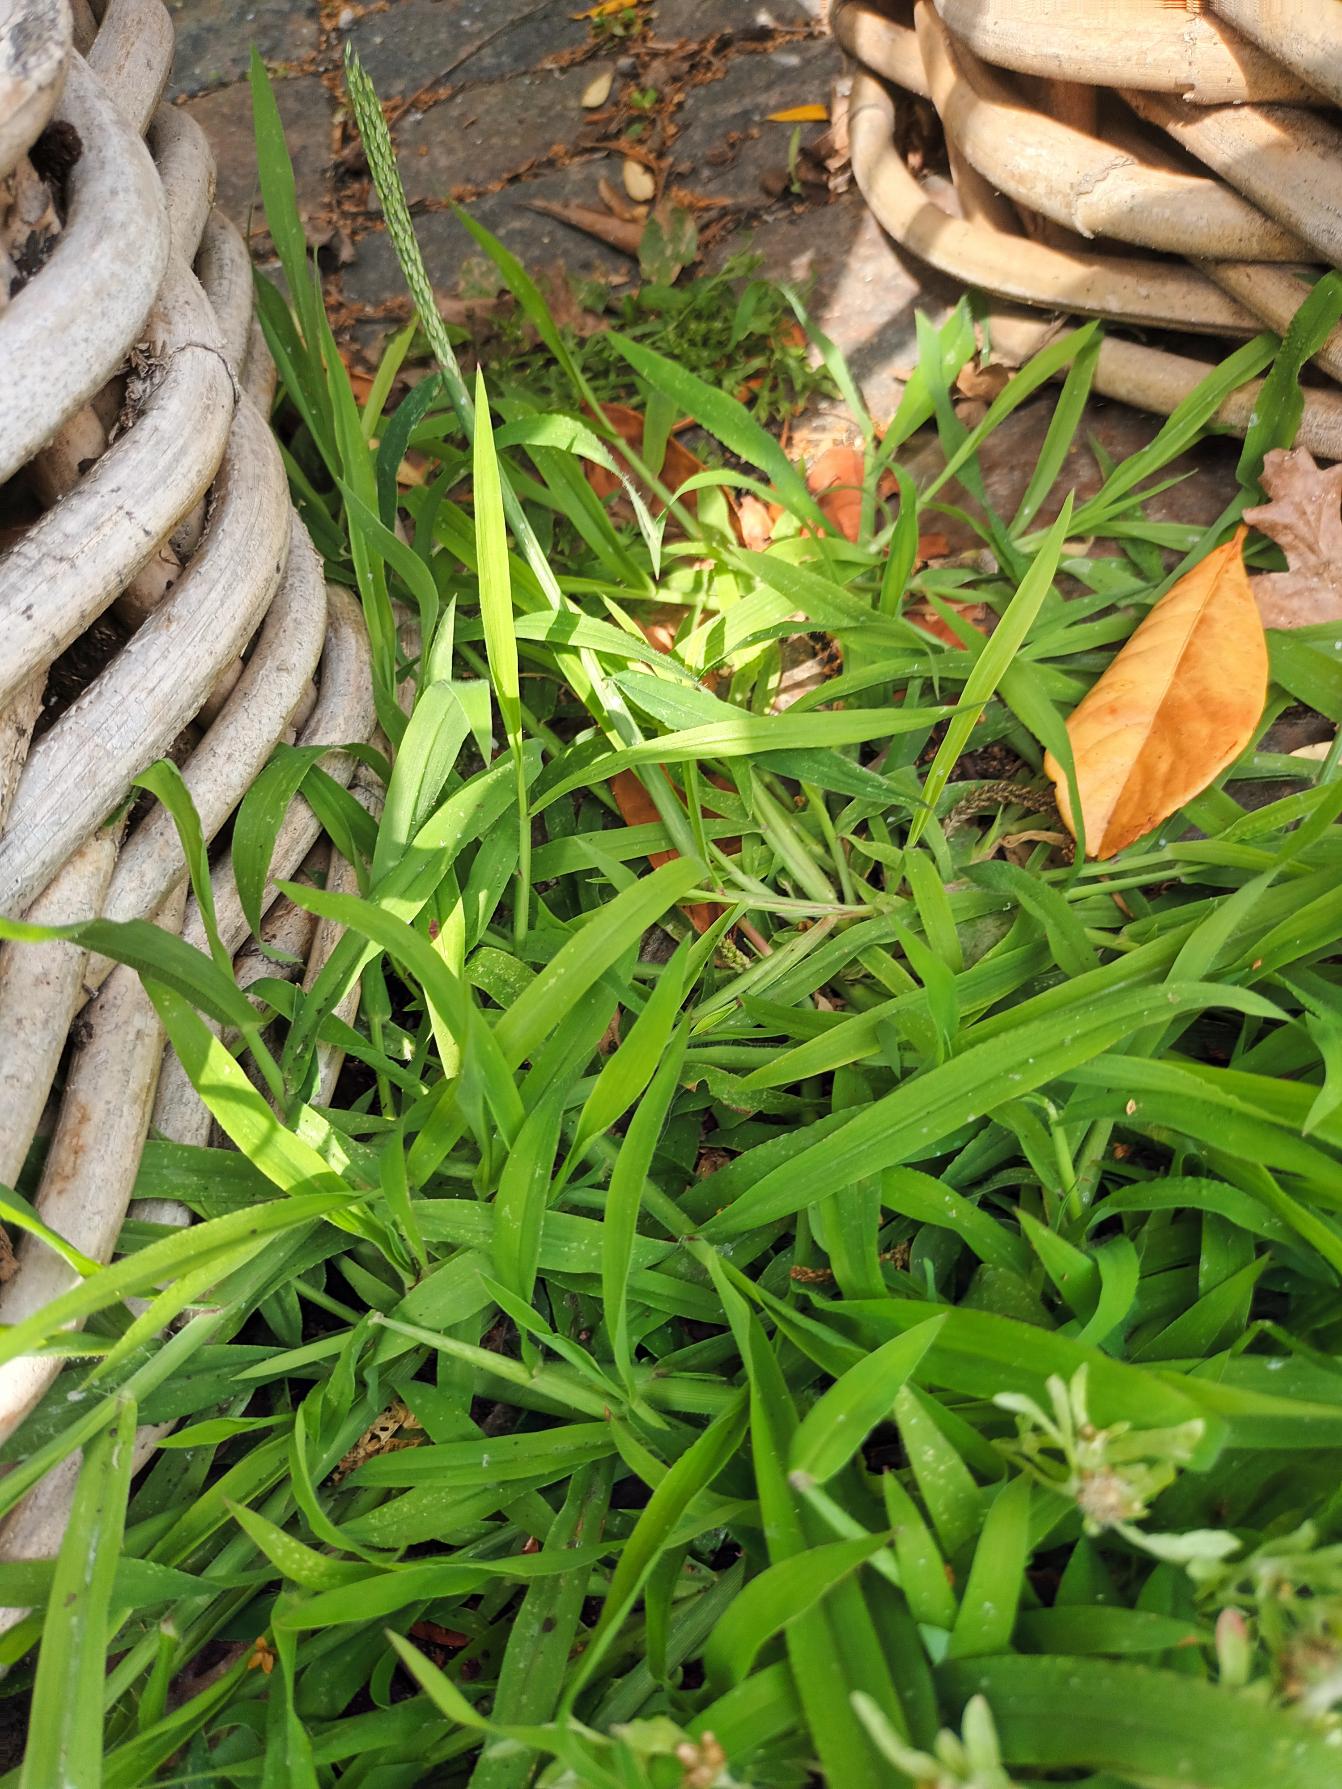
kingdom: Plantae
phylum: Tracheophyta
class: Liliopsida
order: Poales
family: Poaceae
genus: Digitaria
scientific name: Digitaria sanguinalis
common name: Blodhirse
